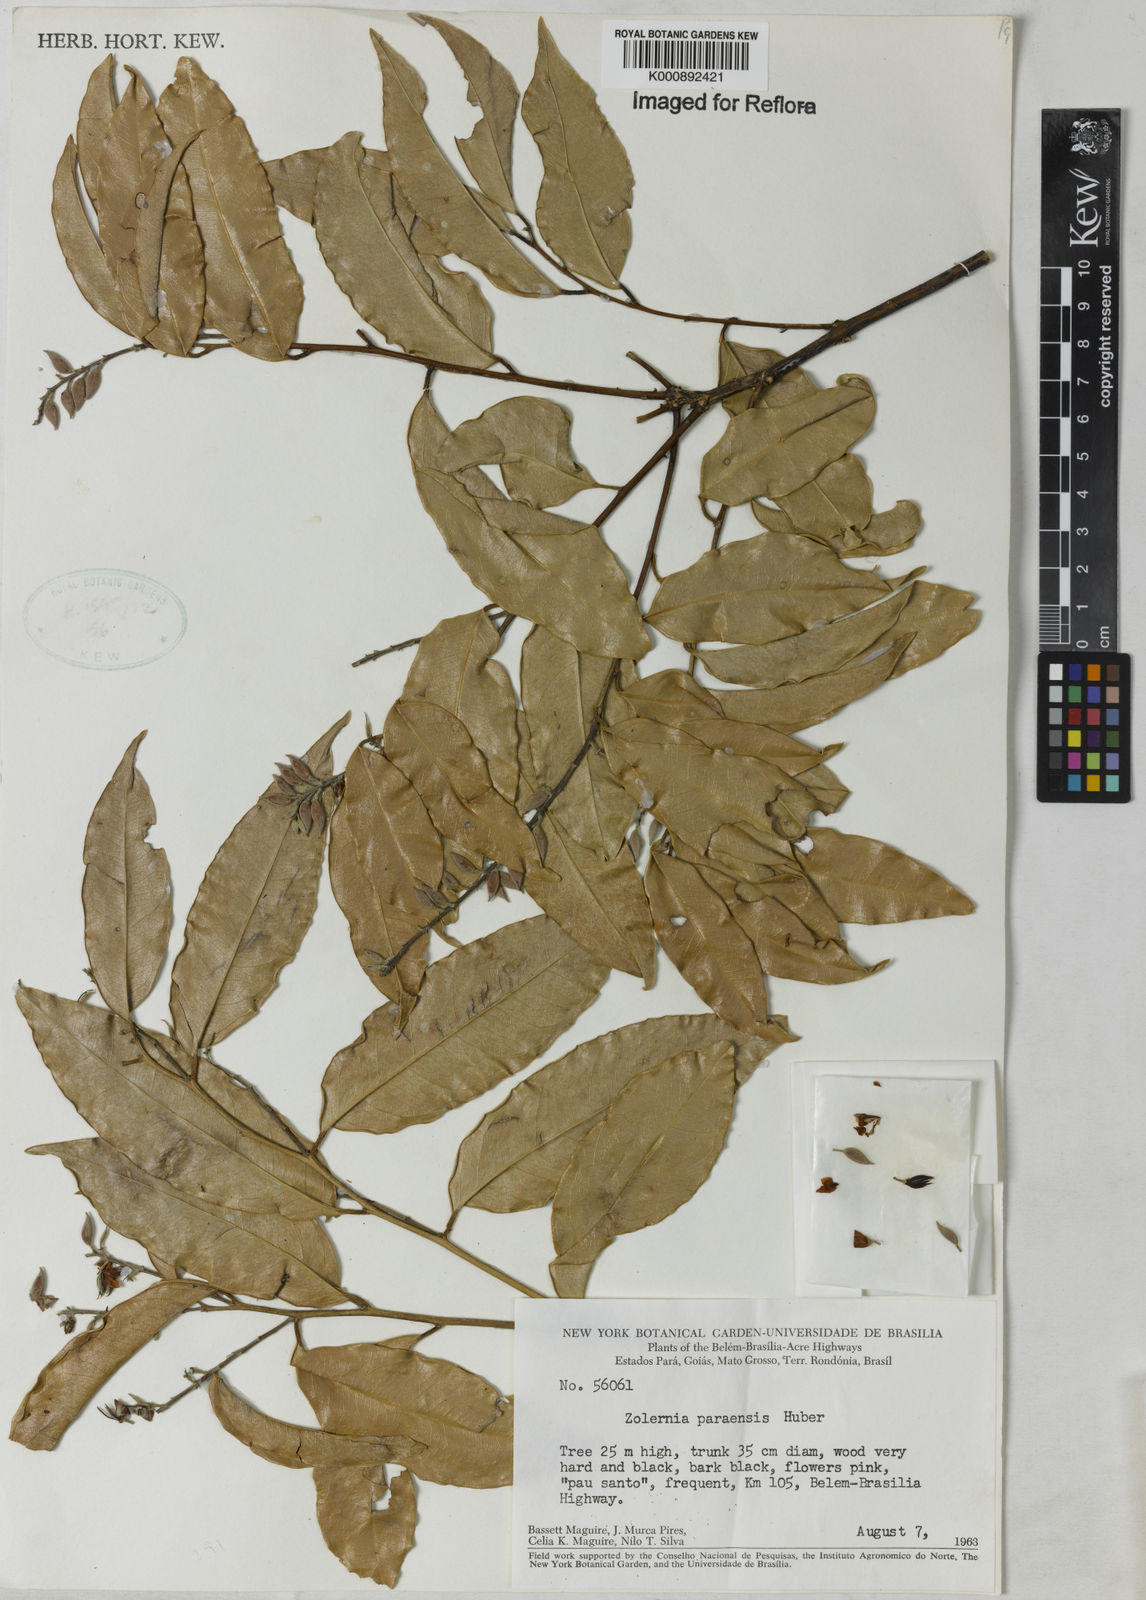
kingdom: Plantae
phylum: Tracheophyta
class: Magnoliopsida
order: Fabales
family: Fabaceae
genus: Zollernia
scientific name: Zollernia paraensis
